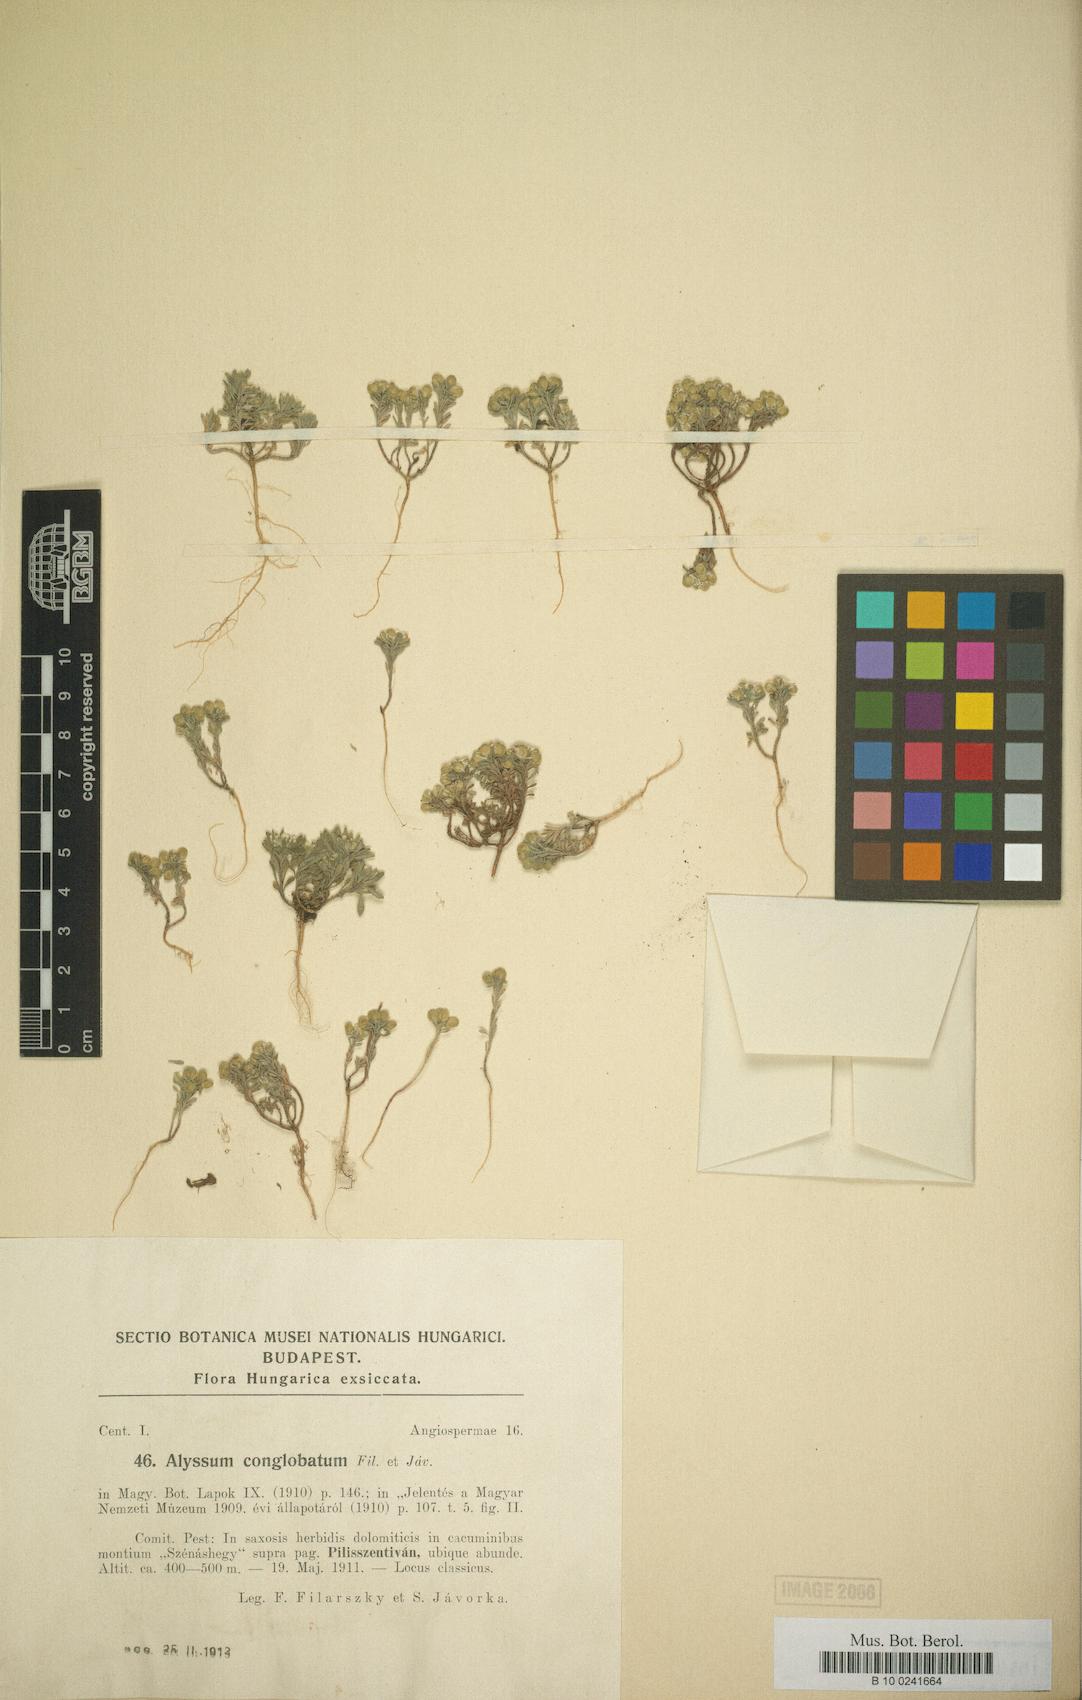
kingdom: Plantae
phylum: Tracheophyta
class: Magnoliopsida
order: Brassicales
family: Brassicaceae
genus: Alyssum
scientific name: Alyssum alyssoides
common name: Small alison
